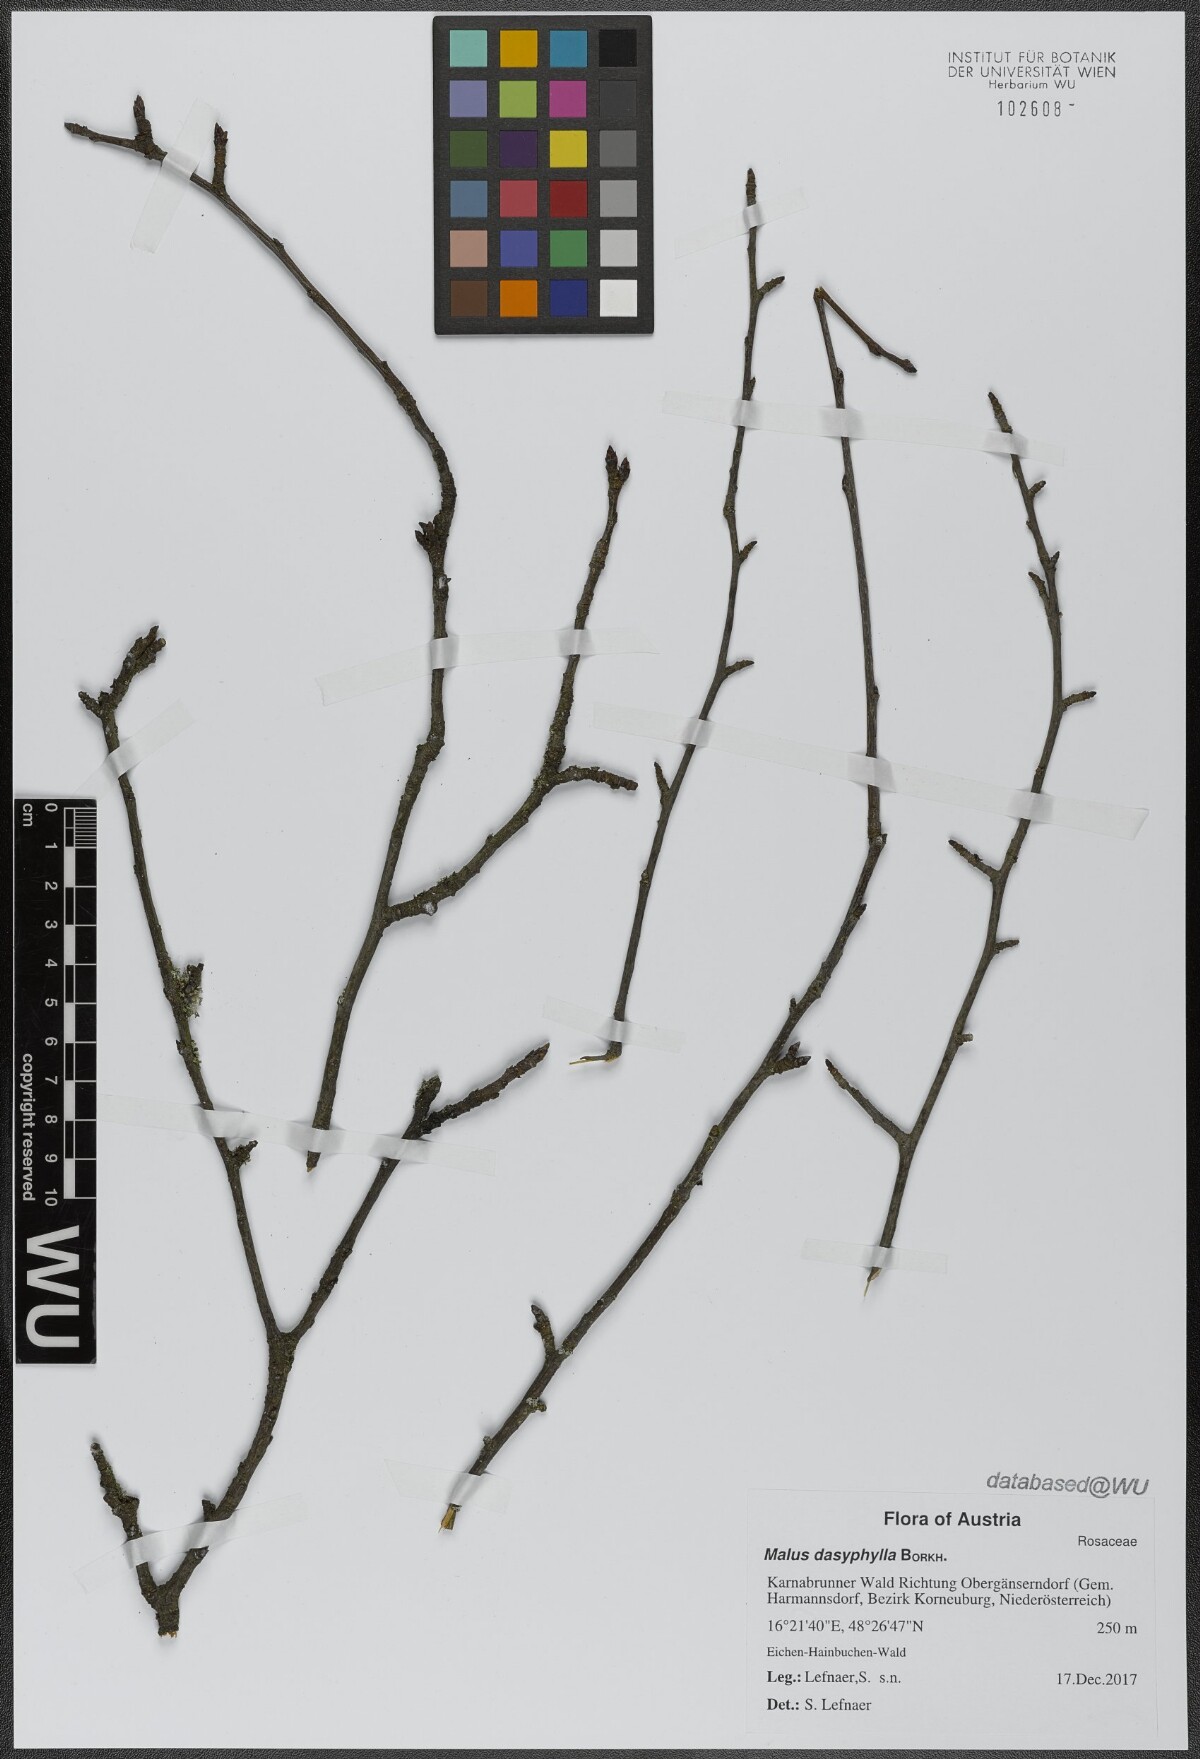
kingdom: Plantae
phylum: Tracheophyta
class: Magnoliopsida
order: Rosales
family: Rosaceae
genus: Malus
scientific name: Malus dasyphylla
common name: Paradise apple
